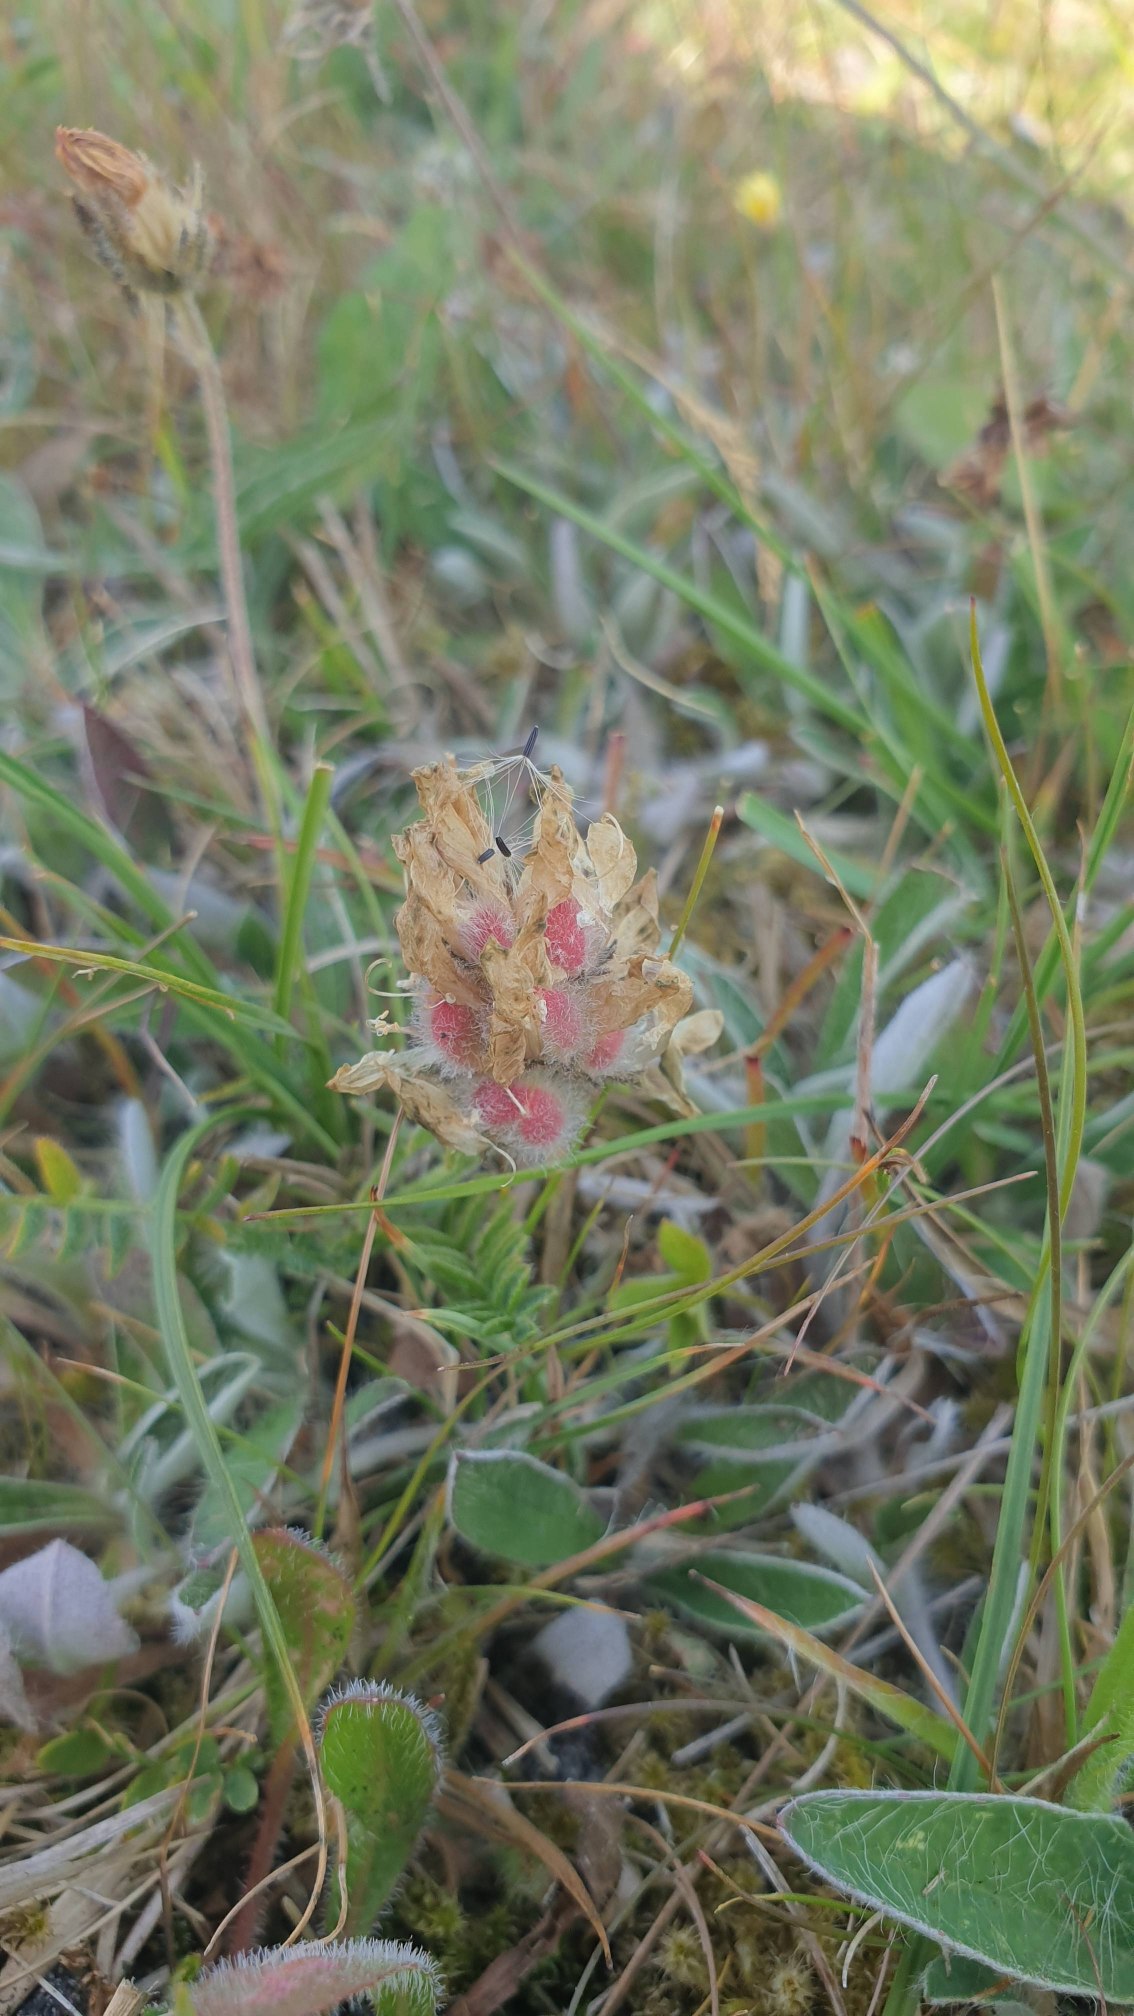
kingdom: Plantae
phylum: Tracheophyta
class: Magnoliopsida
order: Fabales
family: Fabaceae
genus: Astragalus
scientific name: Astragalus danicus
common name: Dansk astragel
